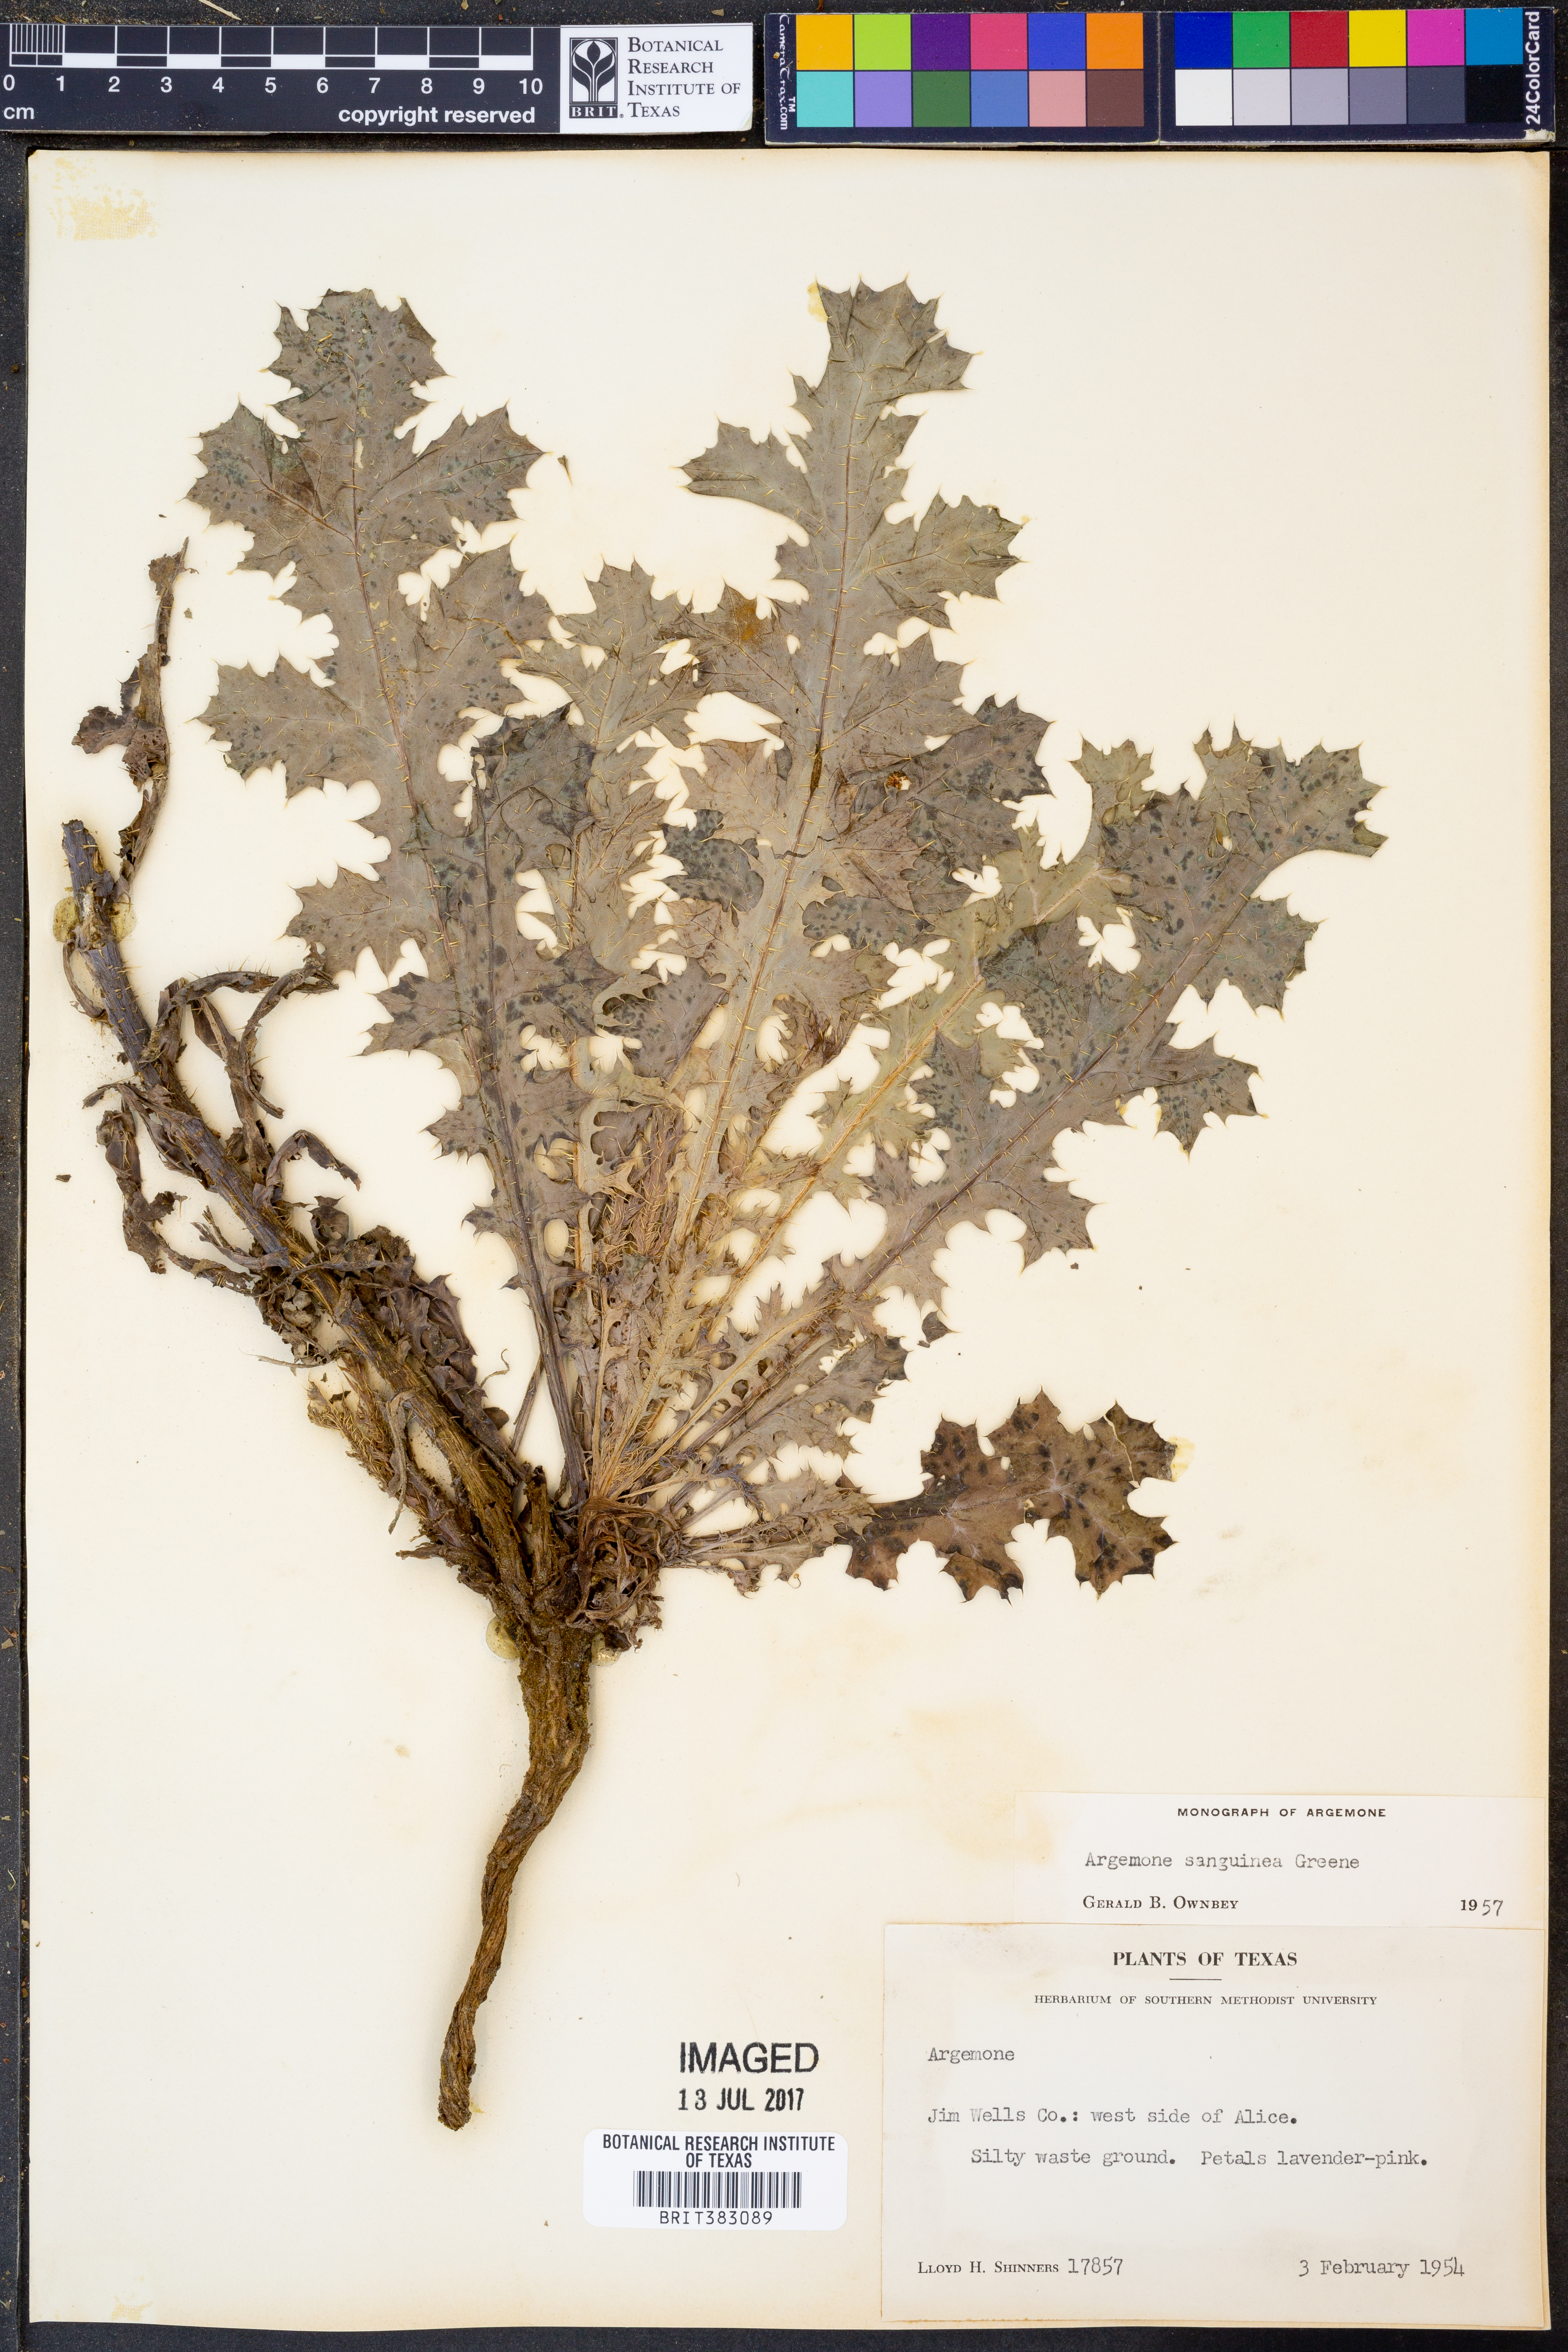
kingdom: Plantae
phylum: Tracheophyta
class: Magnoliopsida
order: Ranunculales
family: Papaveraceae
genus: Argemone
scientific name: Argemone sanguinea
